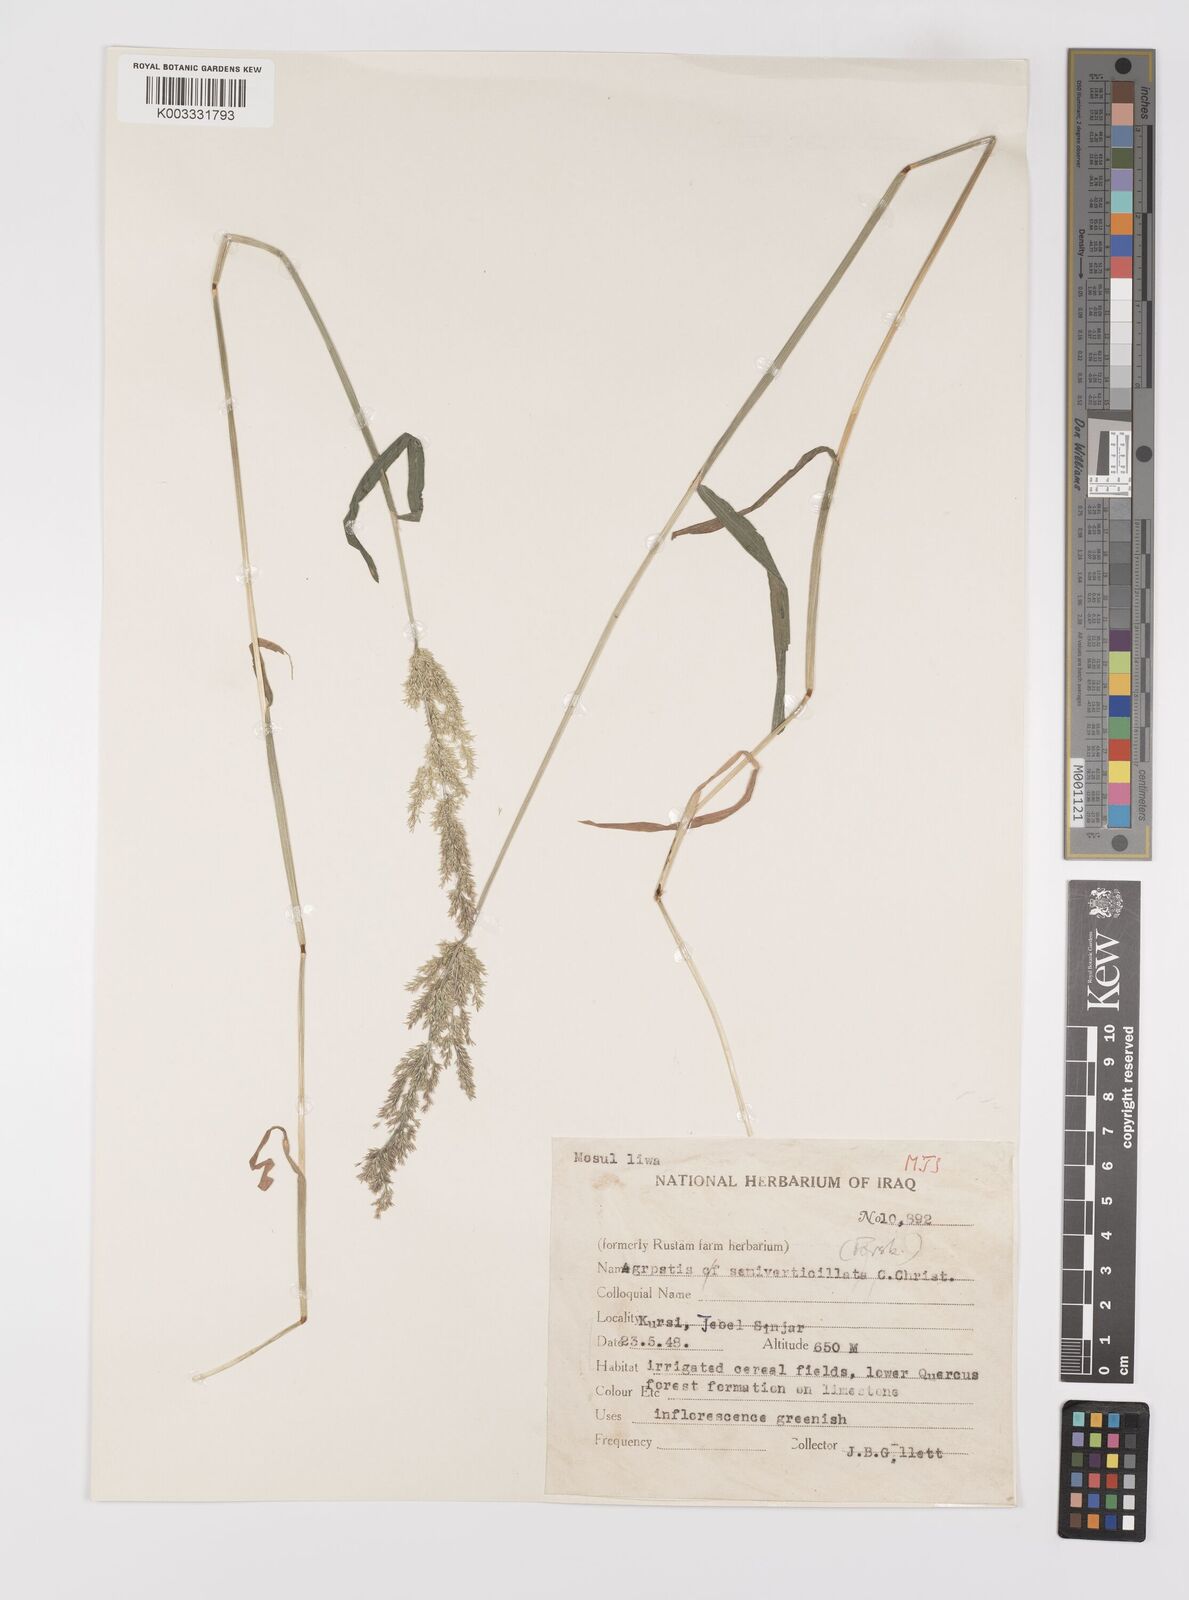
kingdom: Plantae
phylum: Tracheophyta
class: Liliopsida
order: Poales
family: Poaceae
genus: Polypogon
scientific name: Polypogon viridis
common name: Water bent
